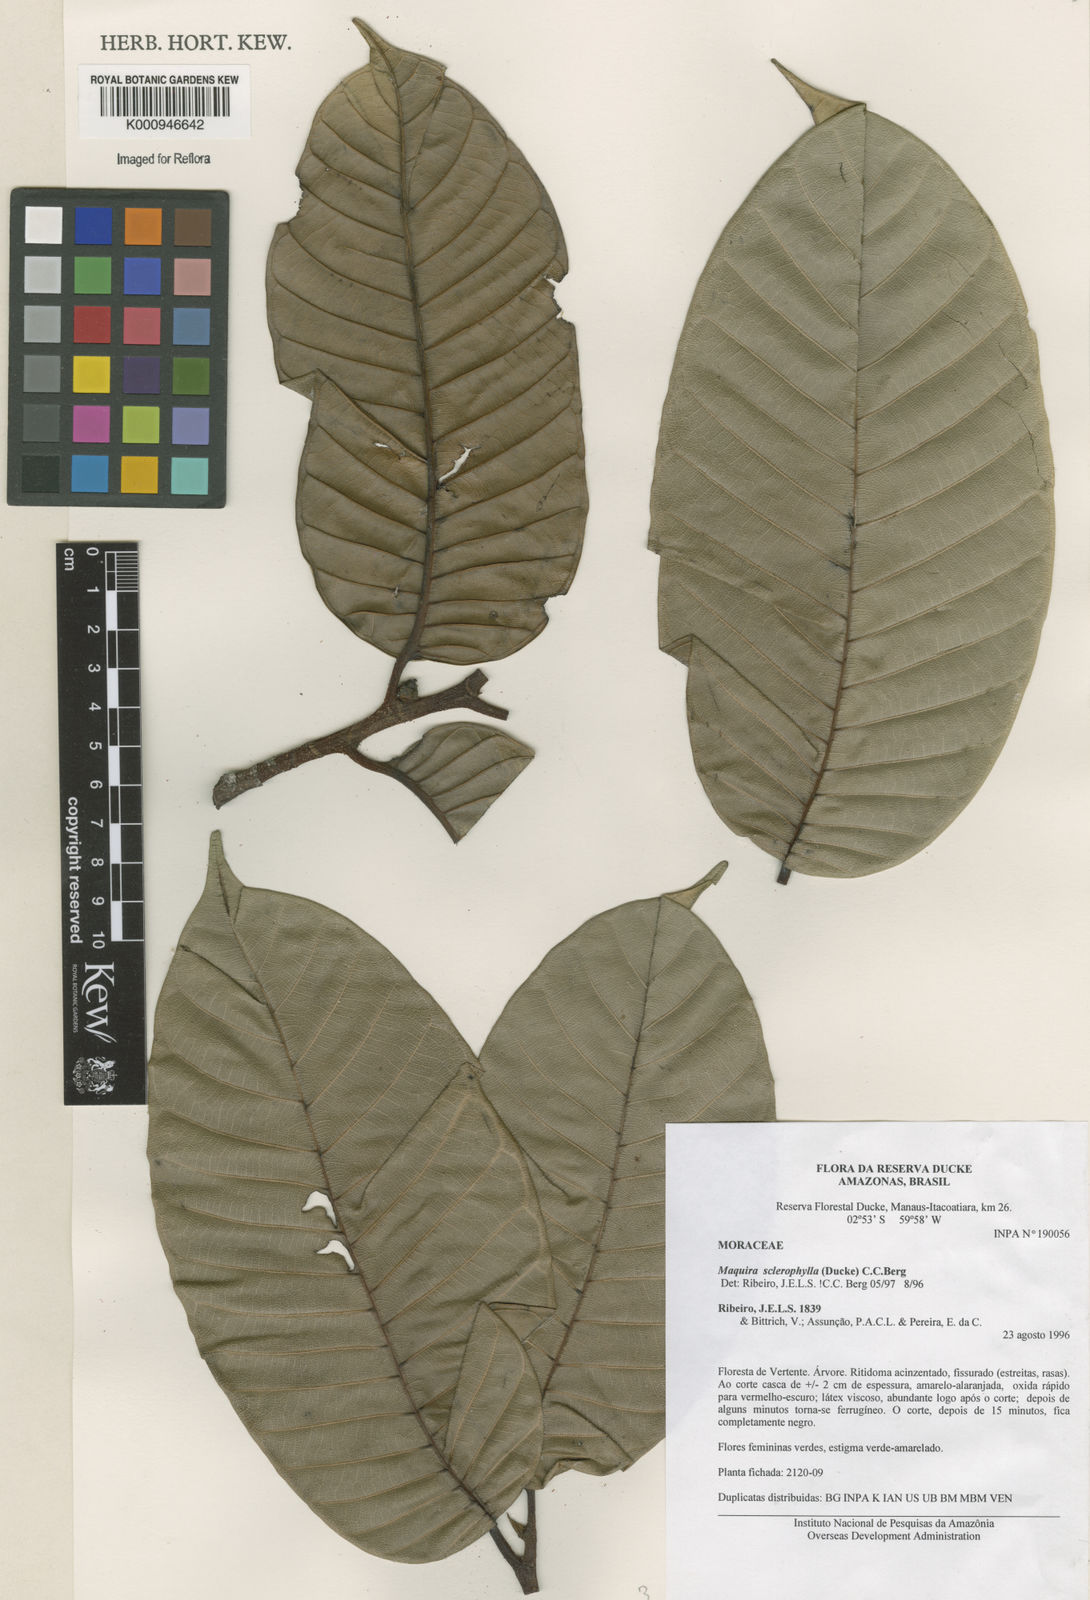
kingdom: Plantae
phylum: Tracheophyta
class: Magnoliopsida
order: Rosales
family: Moraceae
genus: Maquira
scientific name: Maquira sclerophylla
